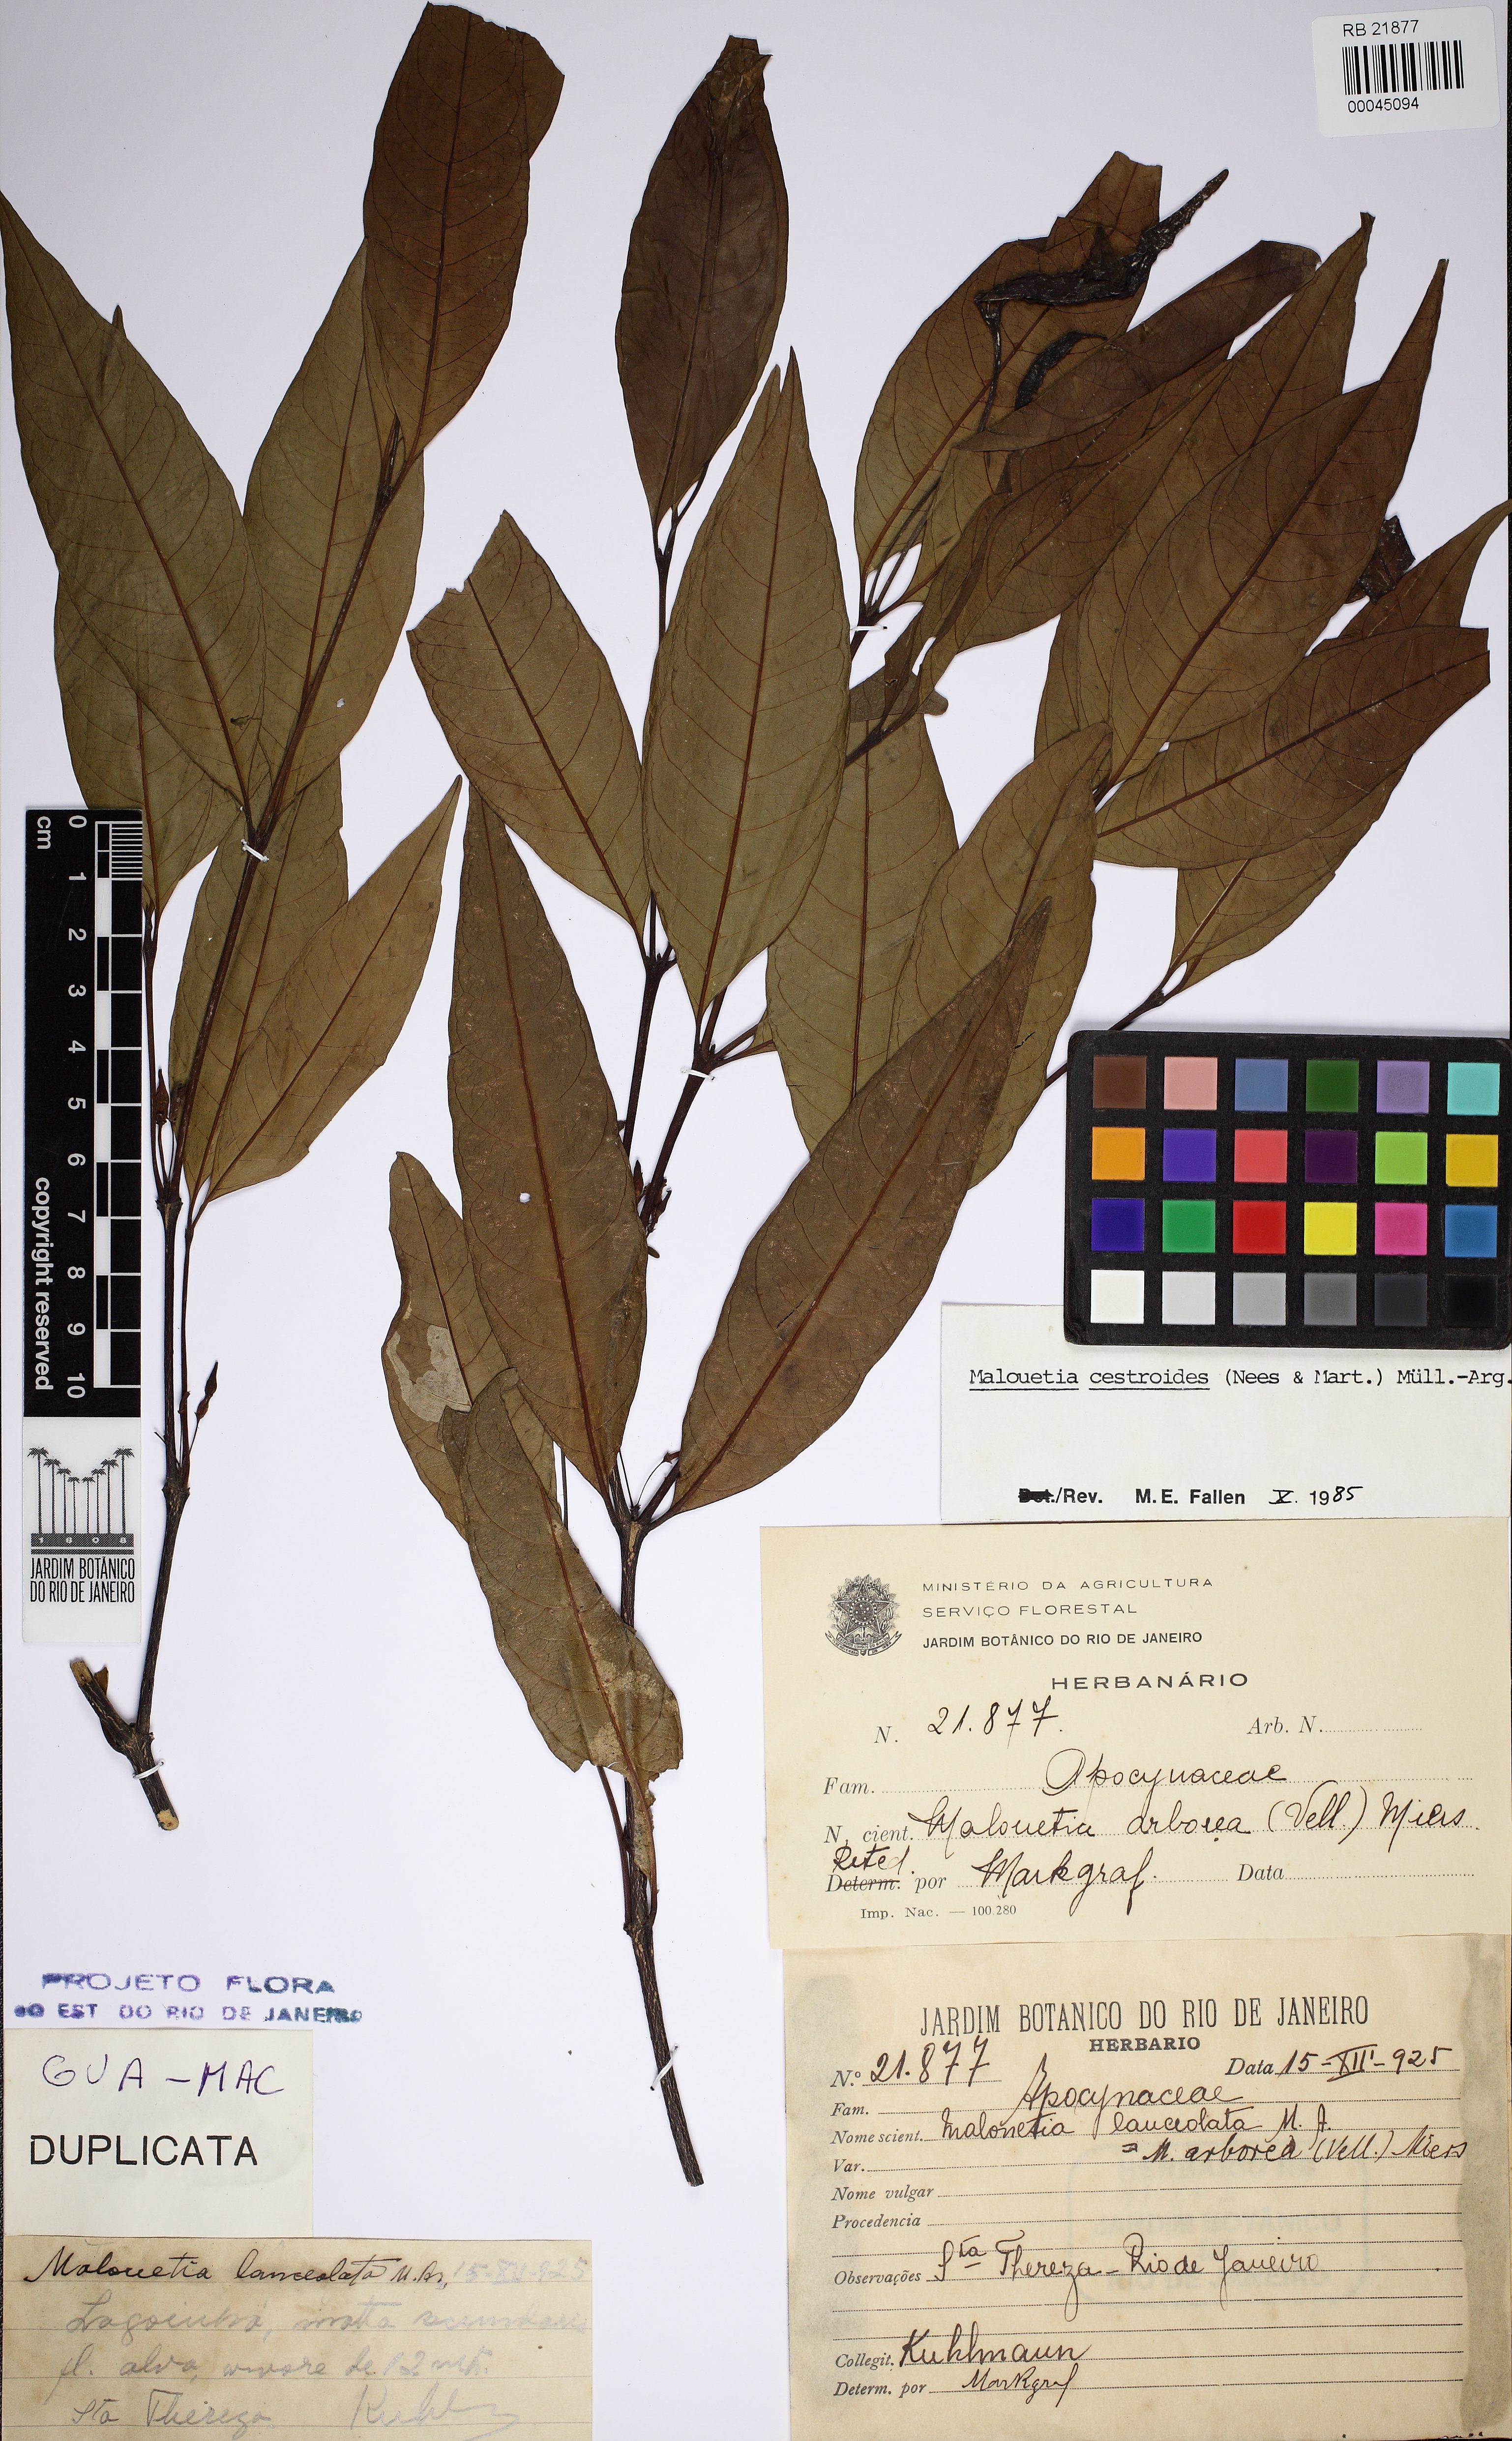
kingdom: Plantae
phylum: Tracheophyta
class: Magnoliopsida
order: Gentianales
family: Apocynaceae
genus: Malouetia
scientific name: Malouetia cestroides
